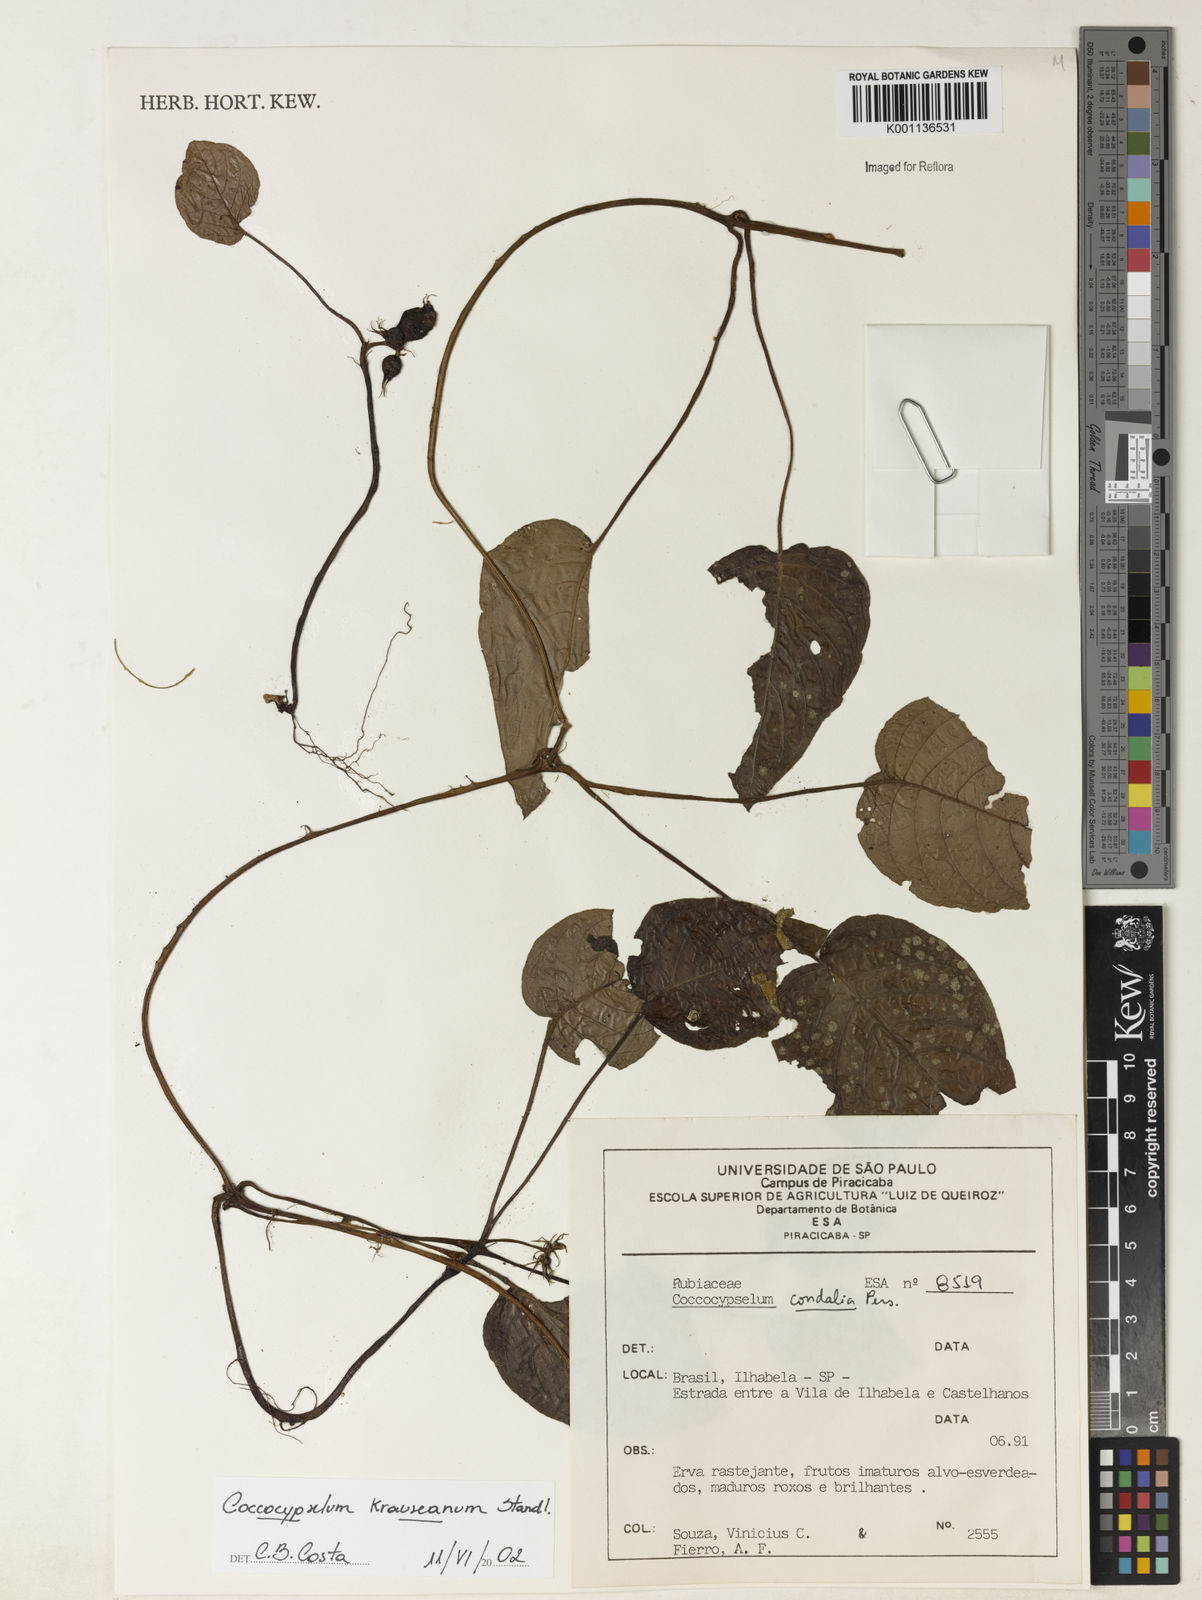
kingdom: Plantae
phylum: Tracheophyta
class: Magnoliopsida
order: Gentianales
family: Rubiaceae
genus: Coccocypselum
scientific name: Coccocypselum geophiloides
